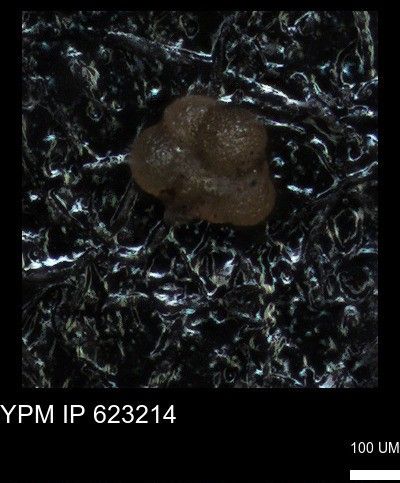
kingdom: Chromista
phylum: Foraminifera
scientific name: Foraminifera
